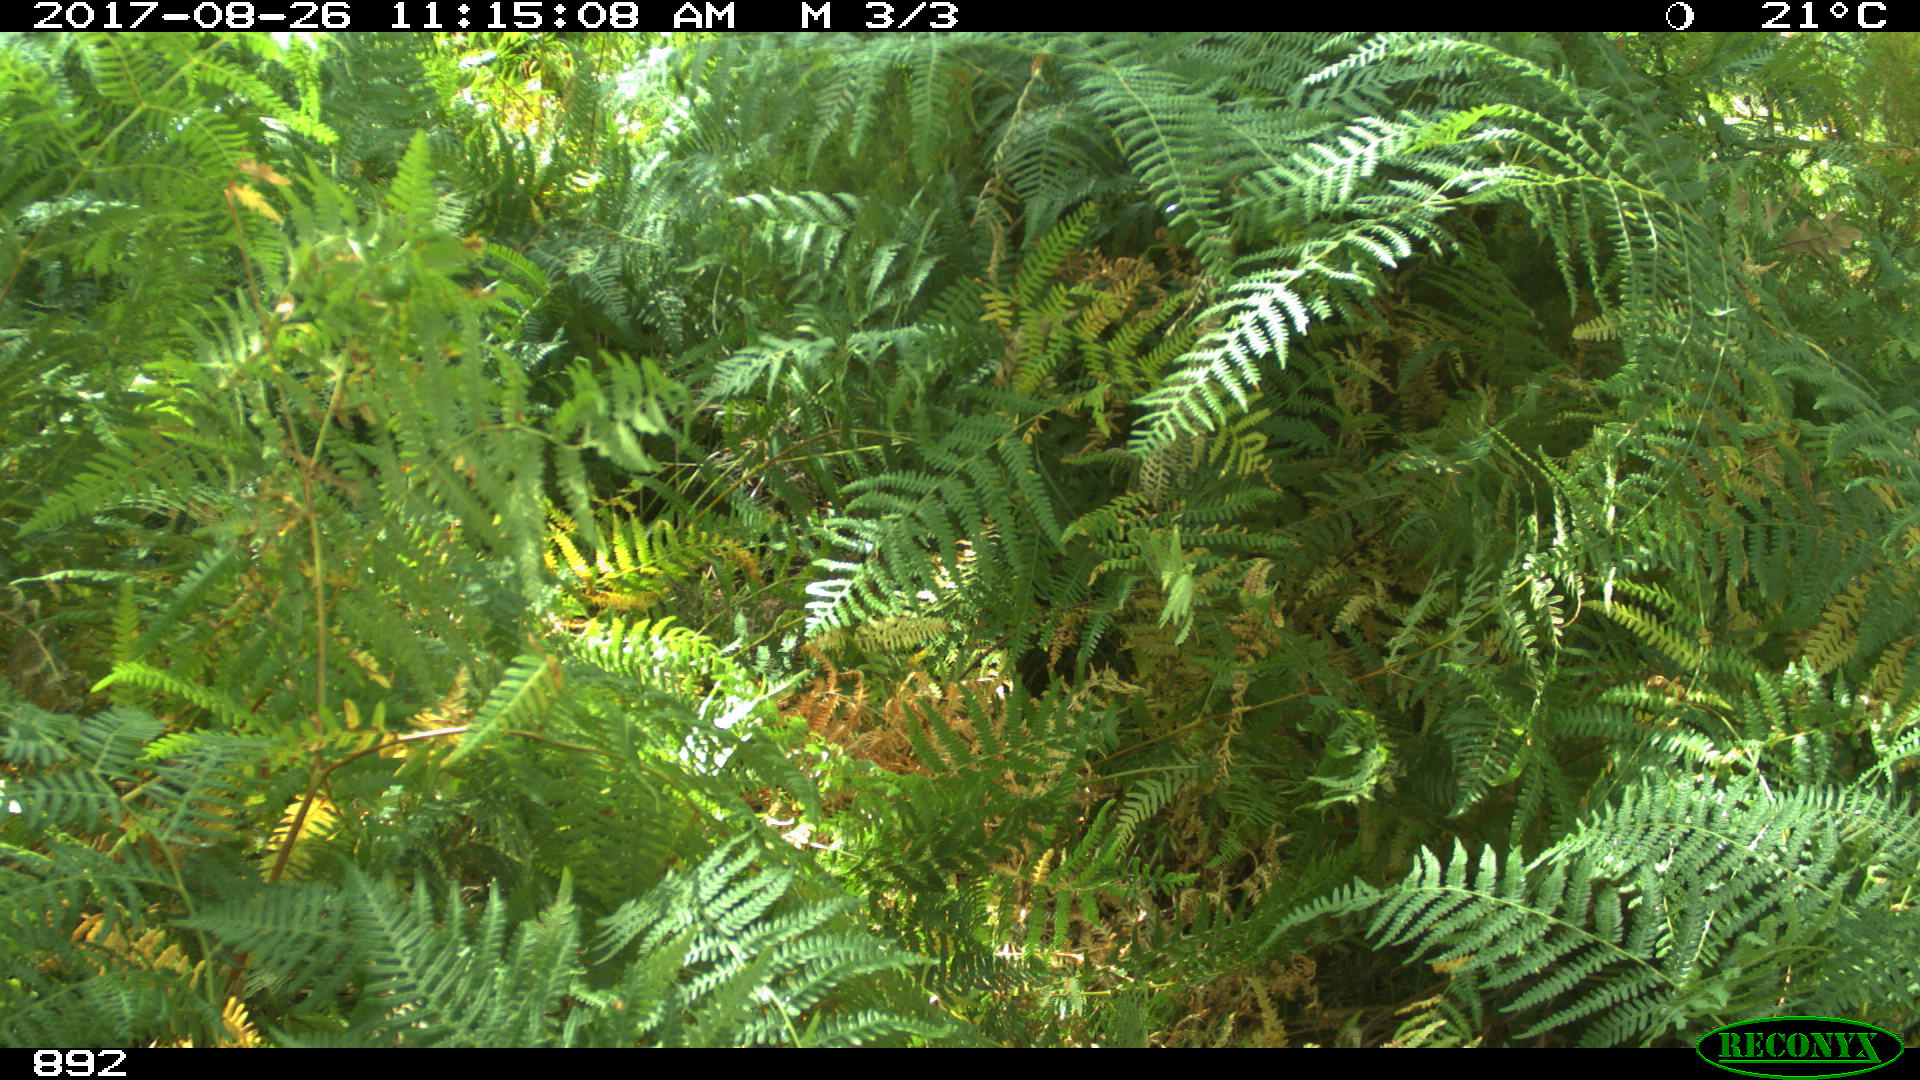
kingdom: Animalia
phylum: Chordata
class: Mammalia
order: Artiodactyla
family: Suidae
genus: Sus
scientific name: Sus scrofa
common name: Wild boar
